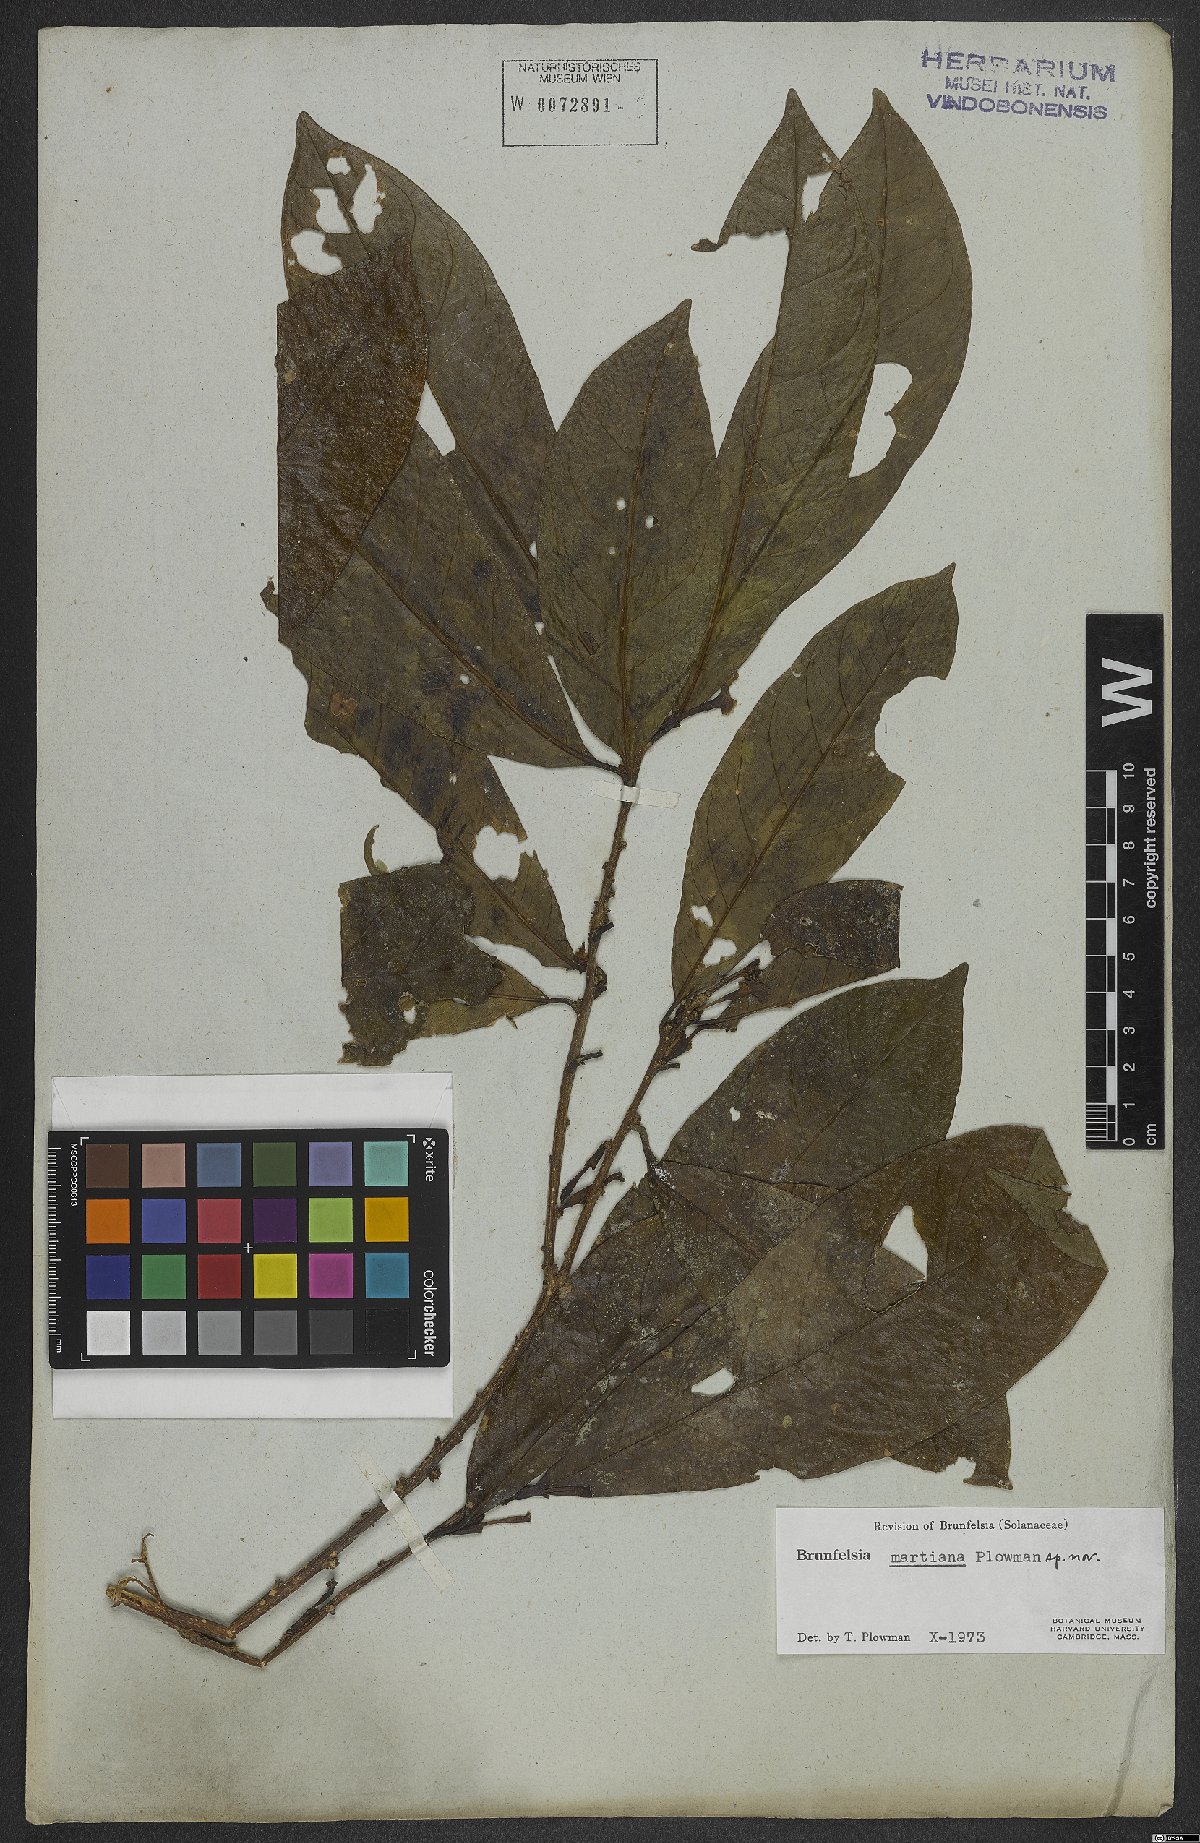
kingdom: Plantae
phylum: Tracheophyta
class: Magnoliopsida
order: Solanales
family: Solanaceae
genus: Brunfelsia
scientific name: Brunfelsia martiana
